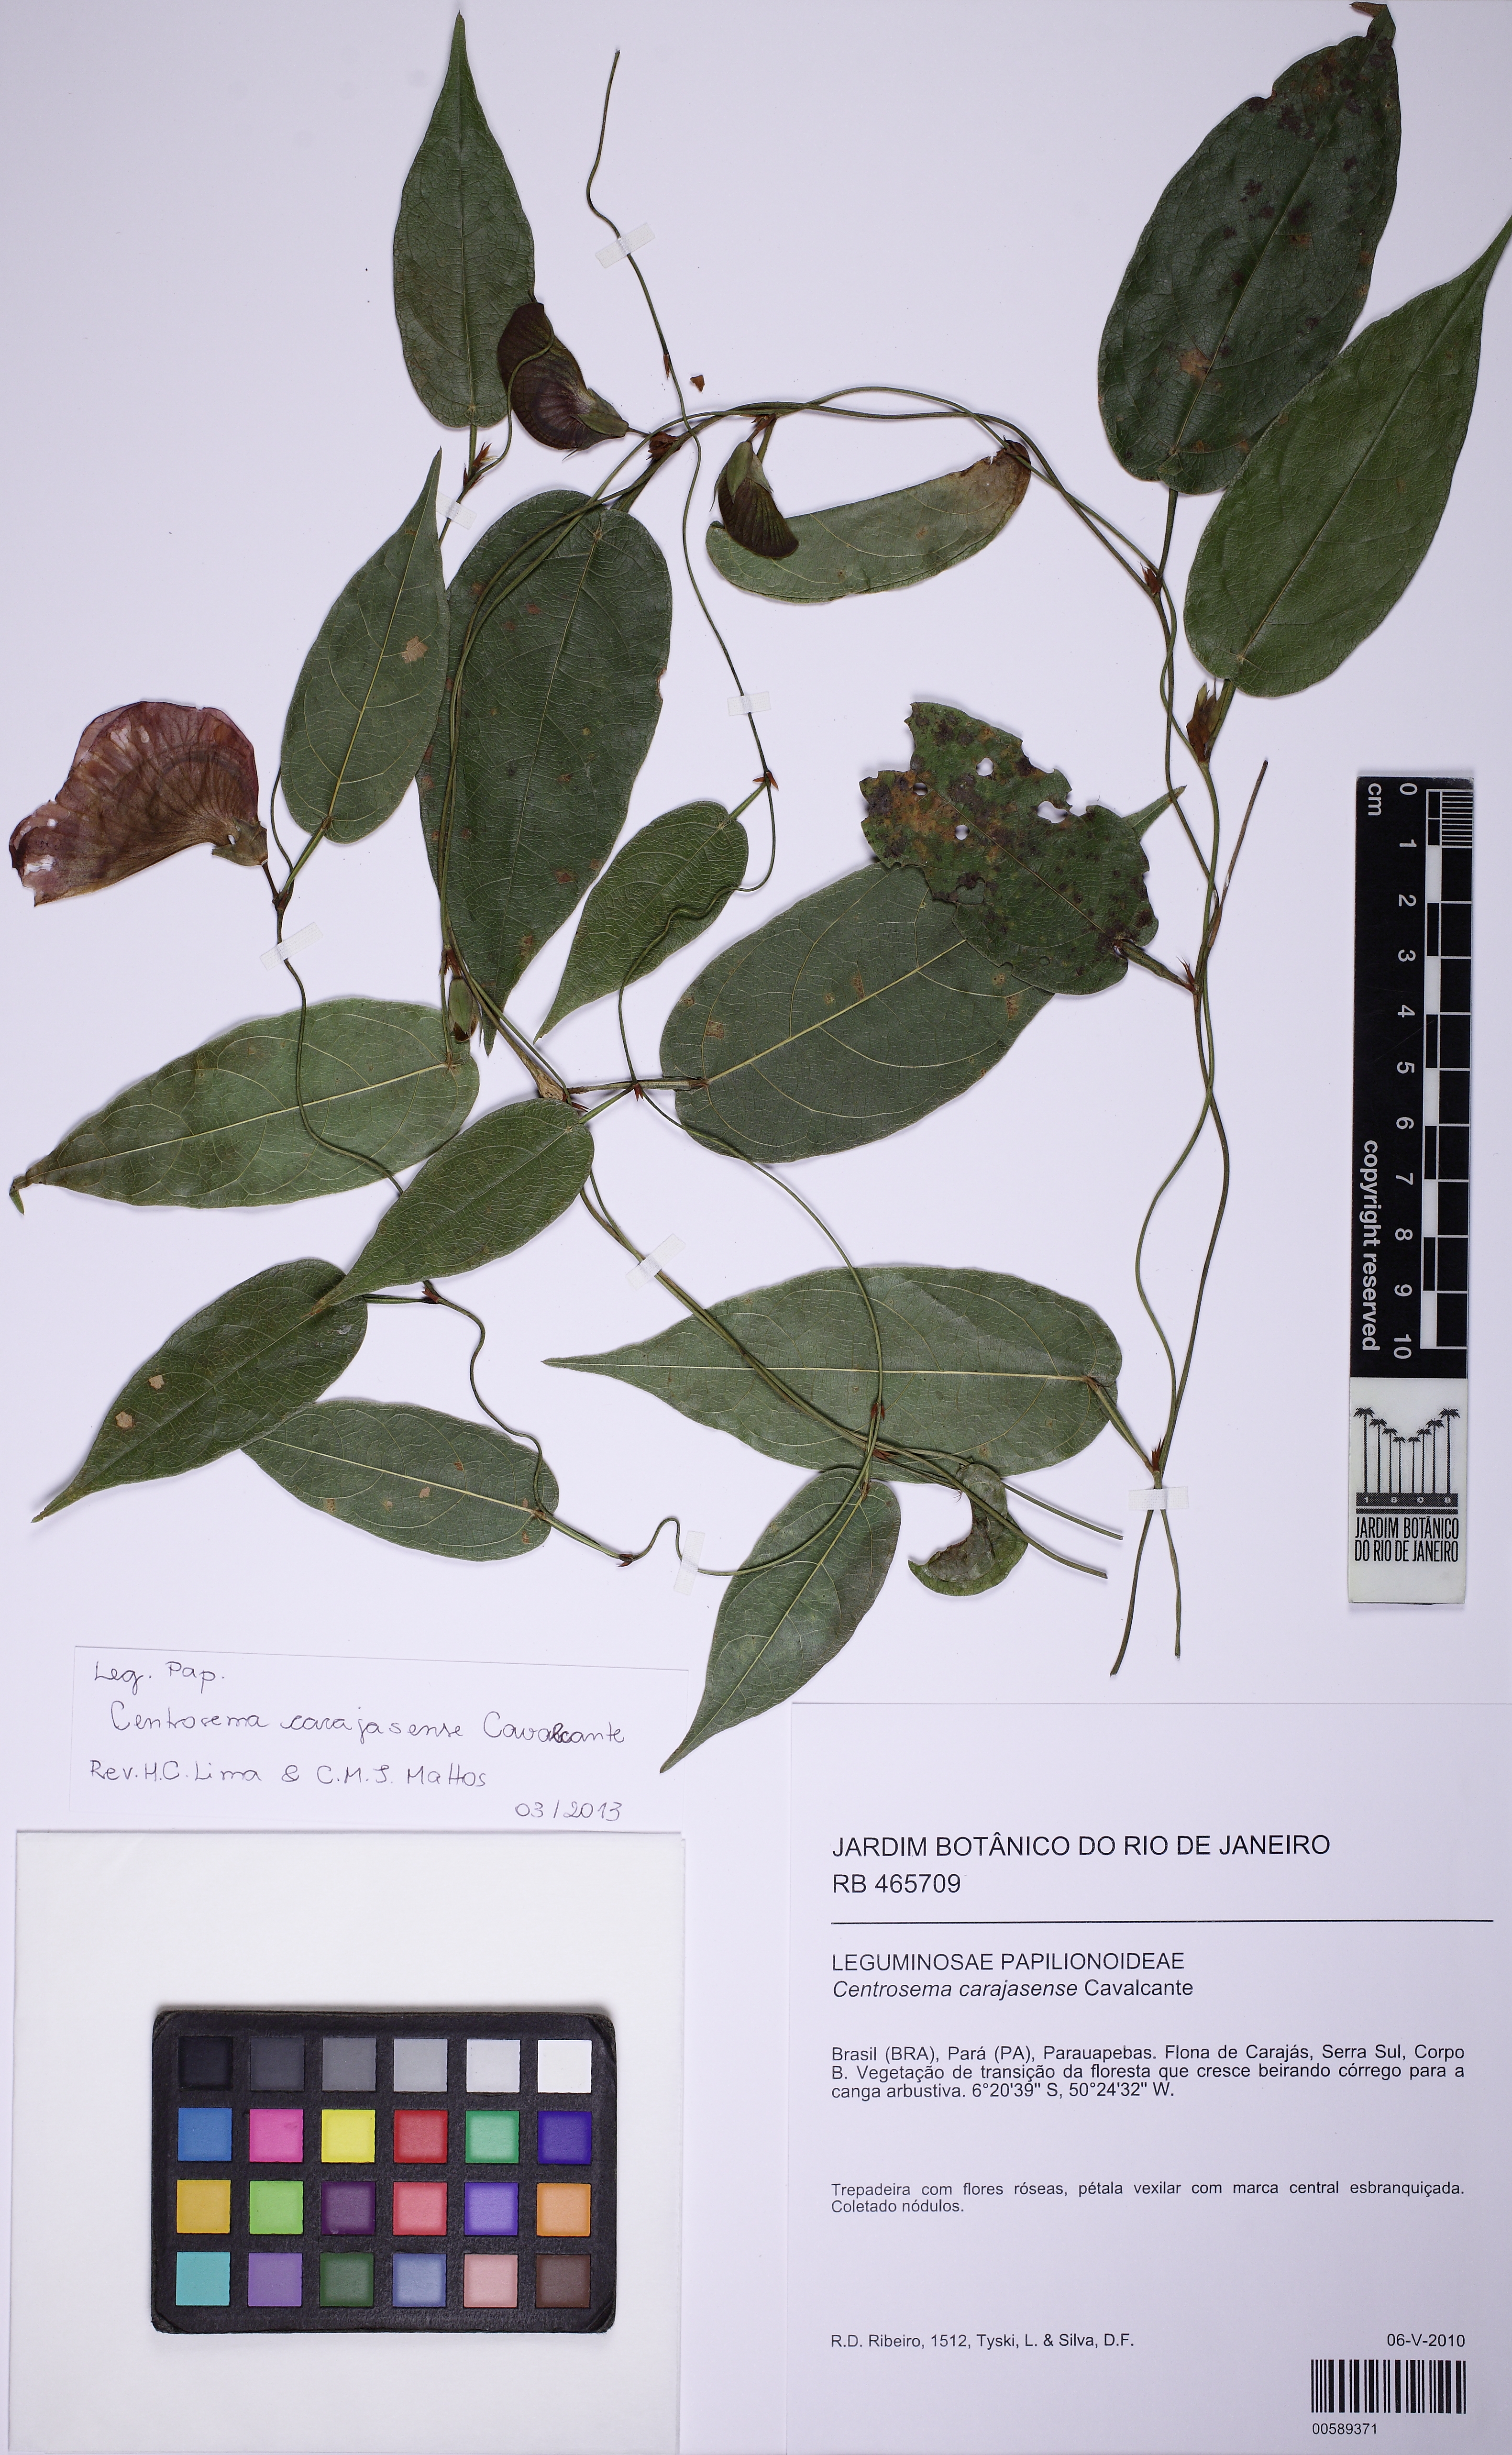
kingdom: Plantae
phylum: Tracheophyta
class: Magnoliopsida
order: Fabales
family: Fabaceae
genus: Centrosema
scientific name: Centrosema carajasense
